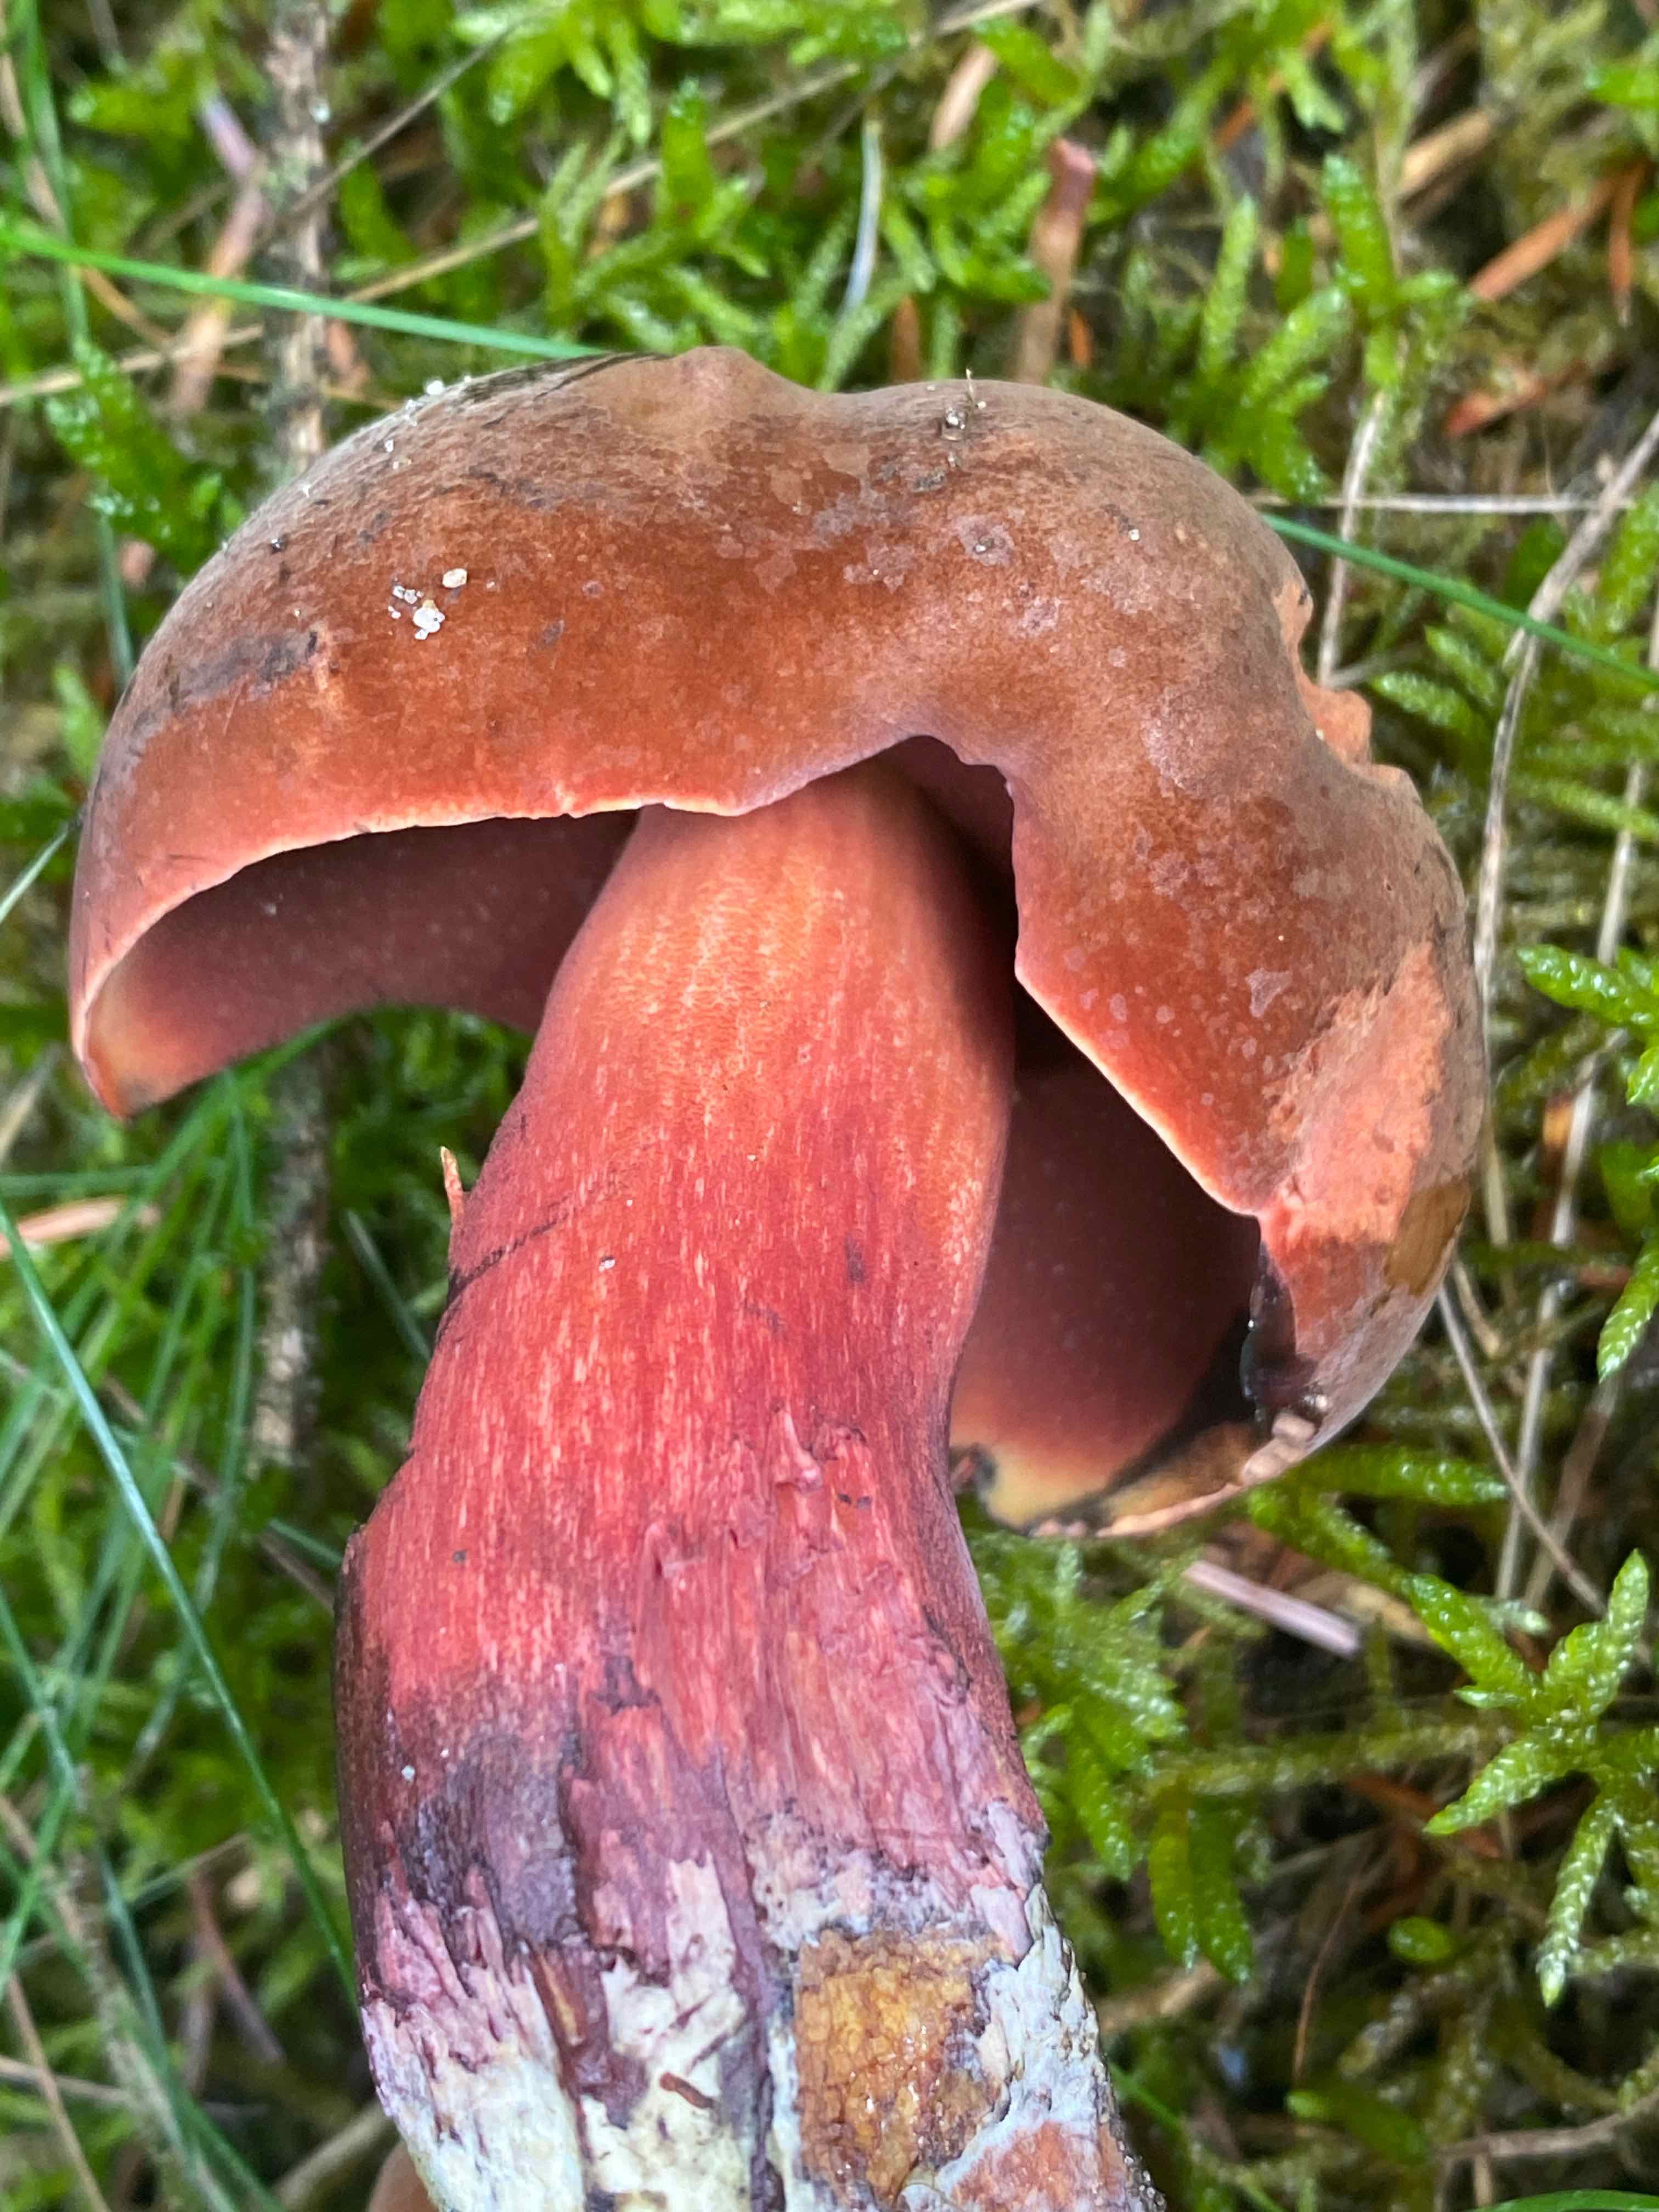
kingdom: Fungi
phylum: Basidiomycota
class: Agaricomycetes
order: Boletales
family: Boletaceae
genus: Neoboletus
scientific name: Neoboletus erythropus
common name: punktstokket indigorørhat
